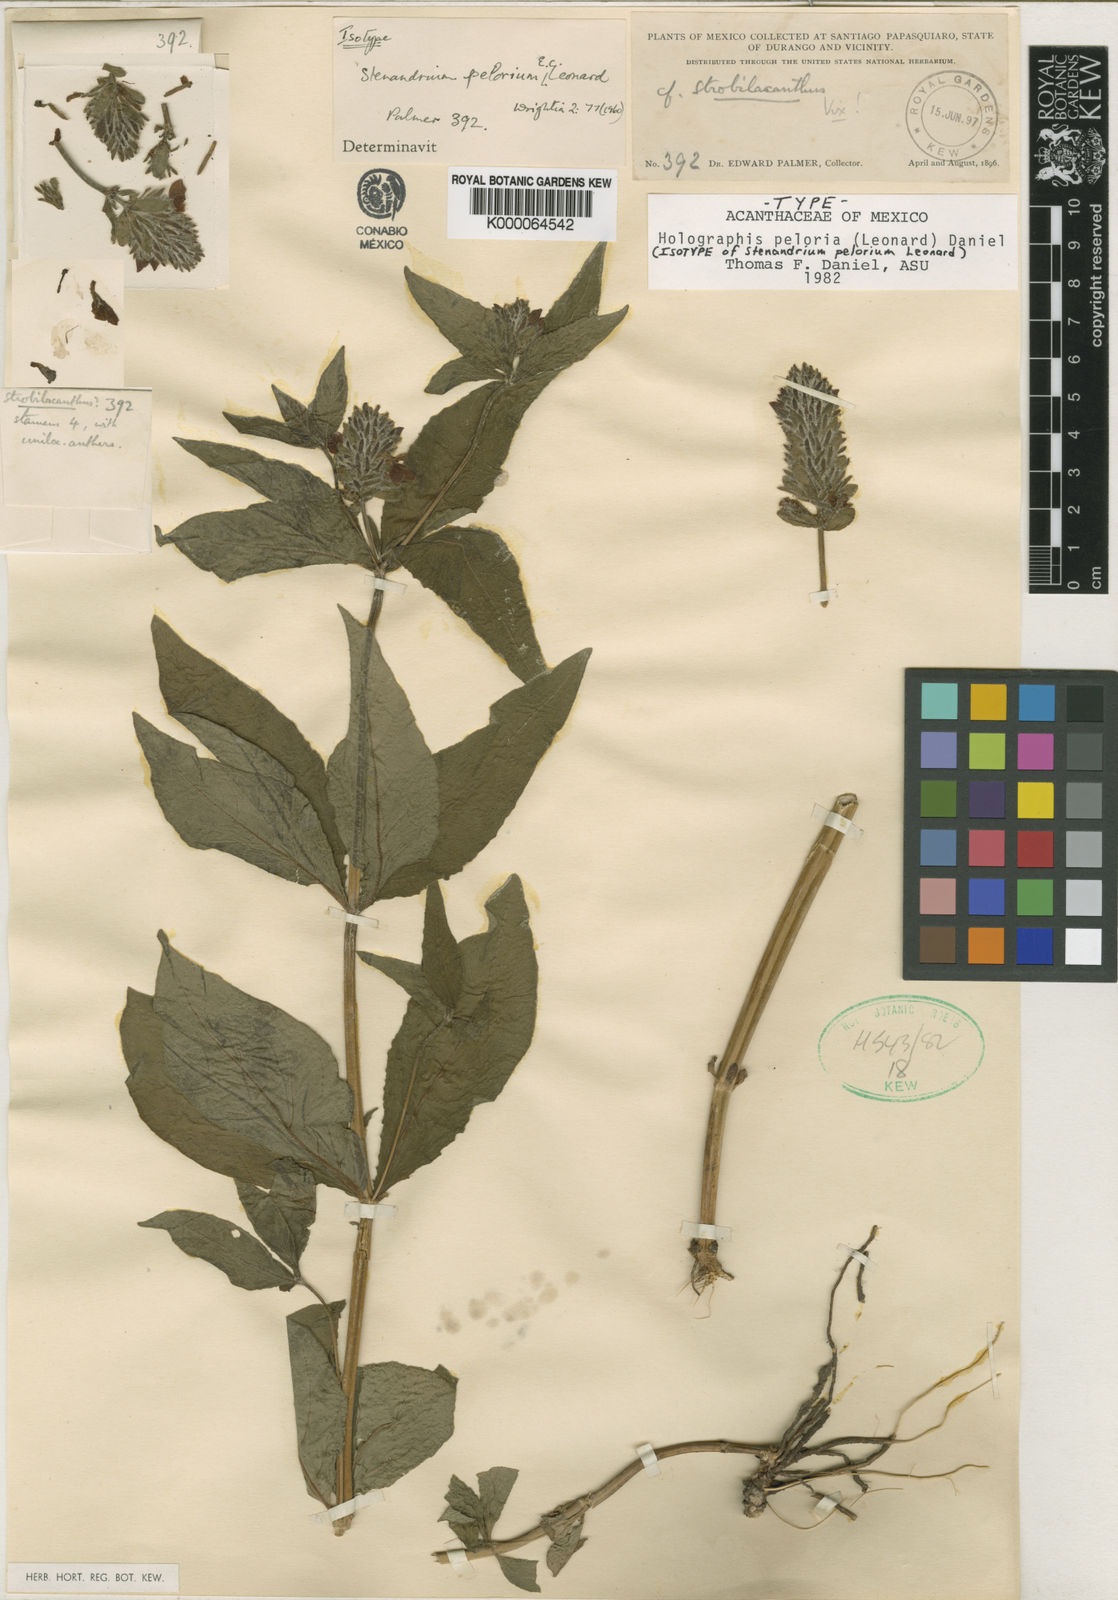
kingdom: Plantae
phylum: Tracheophyta
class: Magnoliopsida
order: Lamiales
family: Acanthaceae
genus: Holographis
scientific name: Holographis peloria
